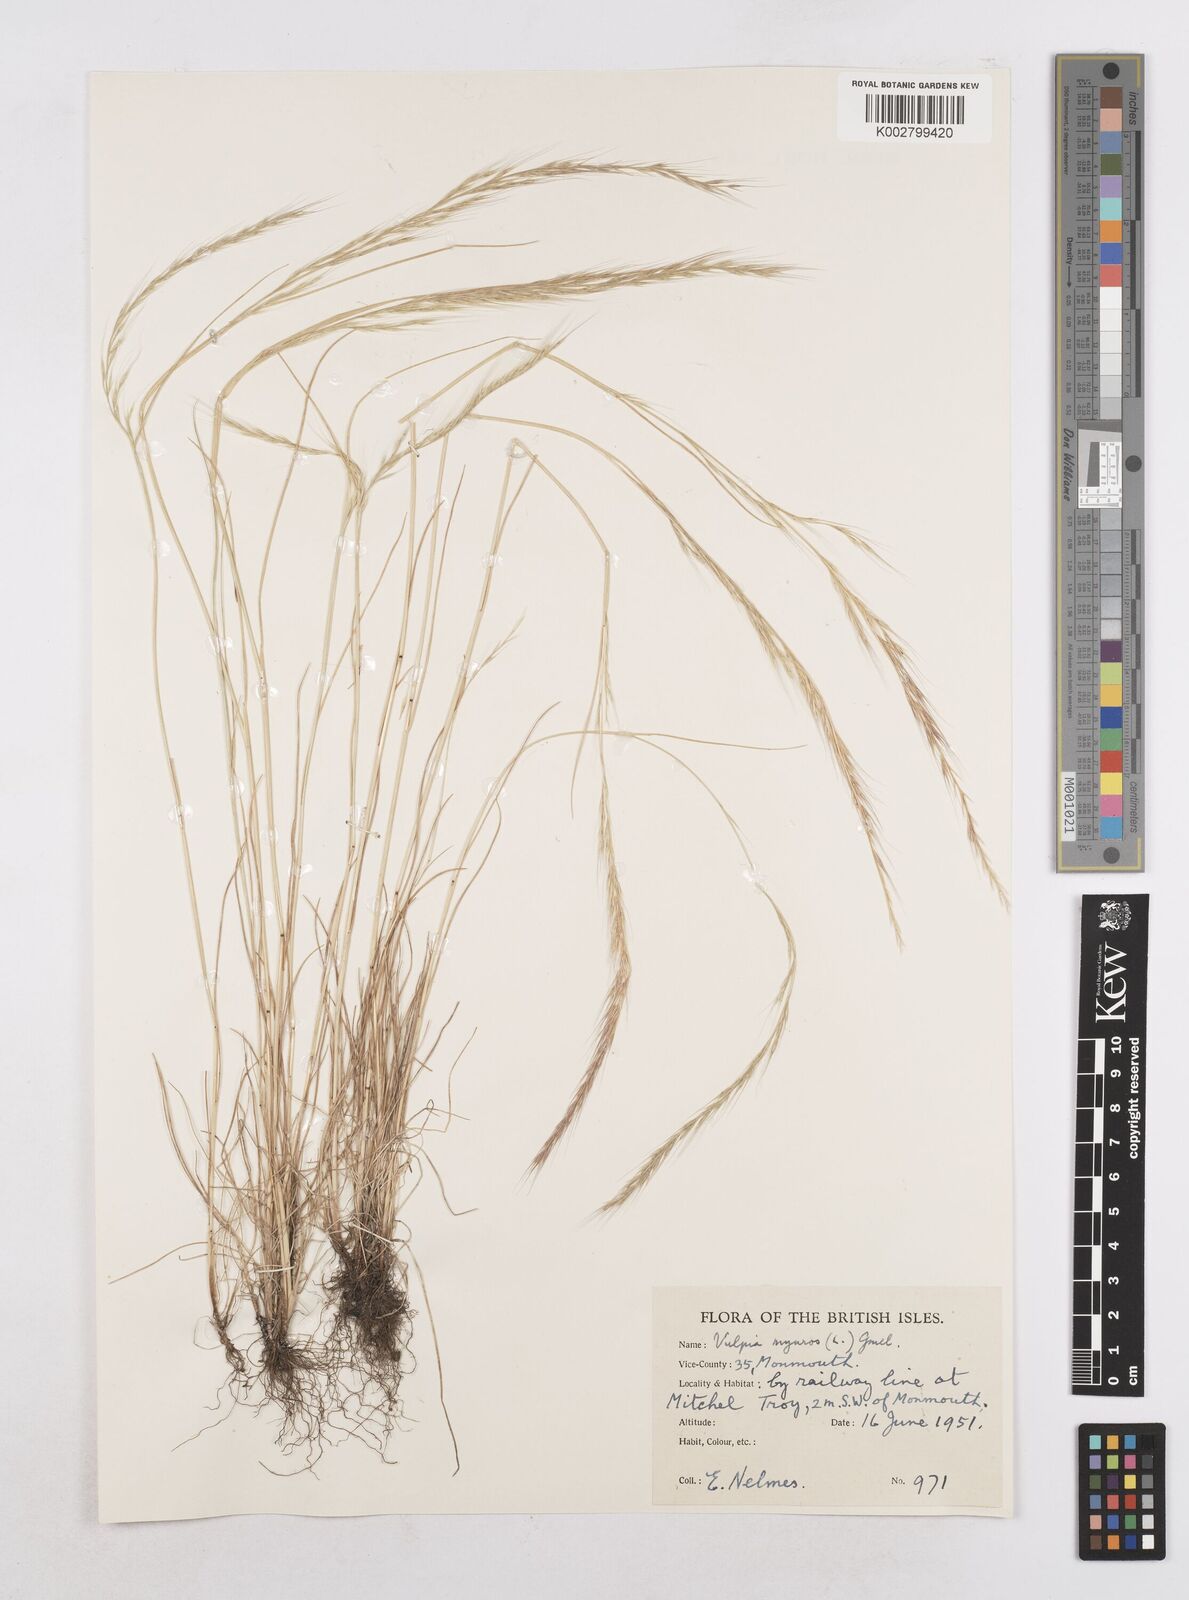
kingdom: Plantae
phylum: Tracheophyta
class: Liliopsida
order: Poales
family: Poaceae
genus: Festuca
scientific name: Festuca myuros
